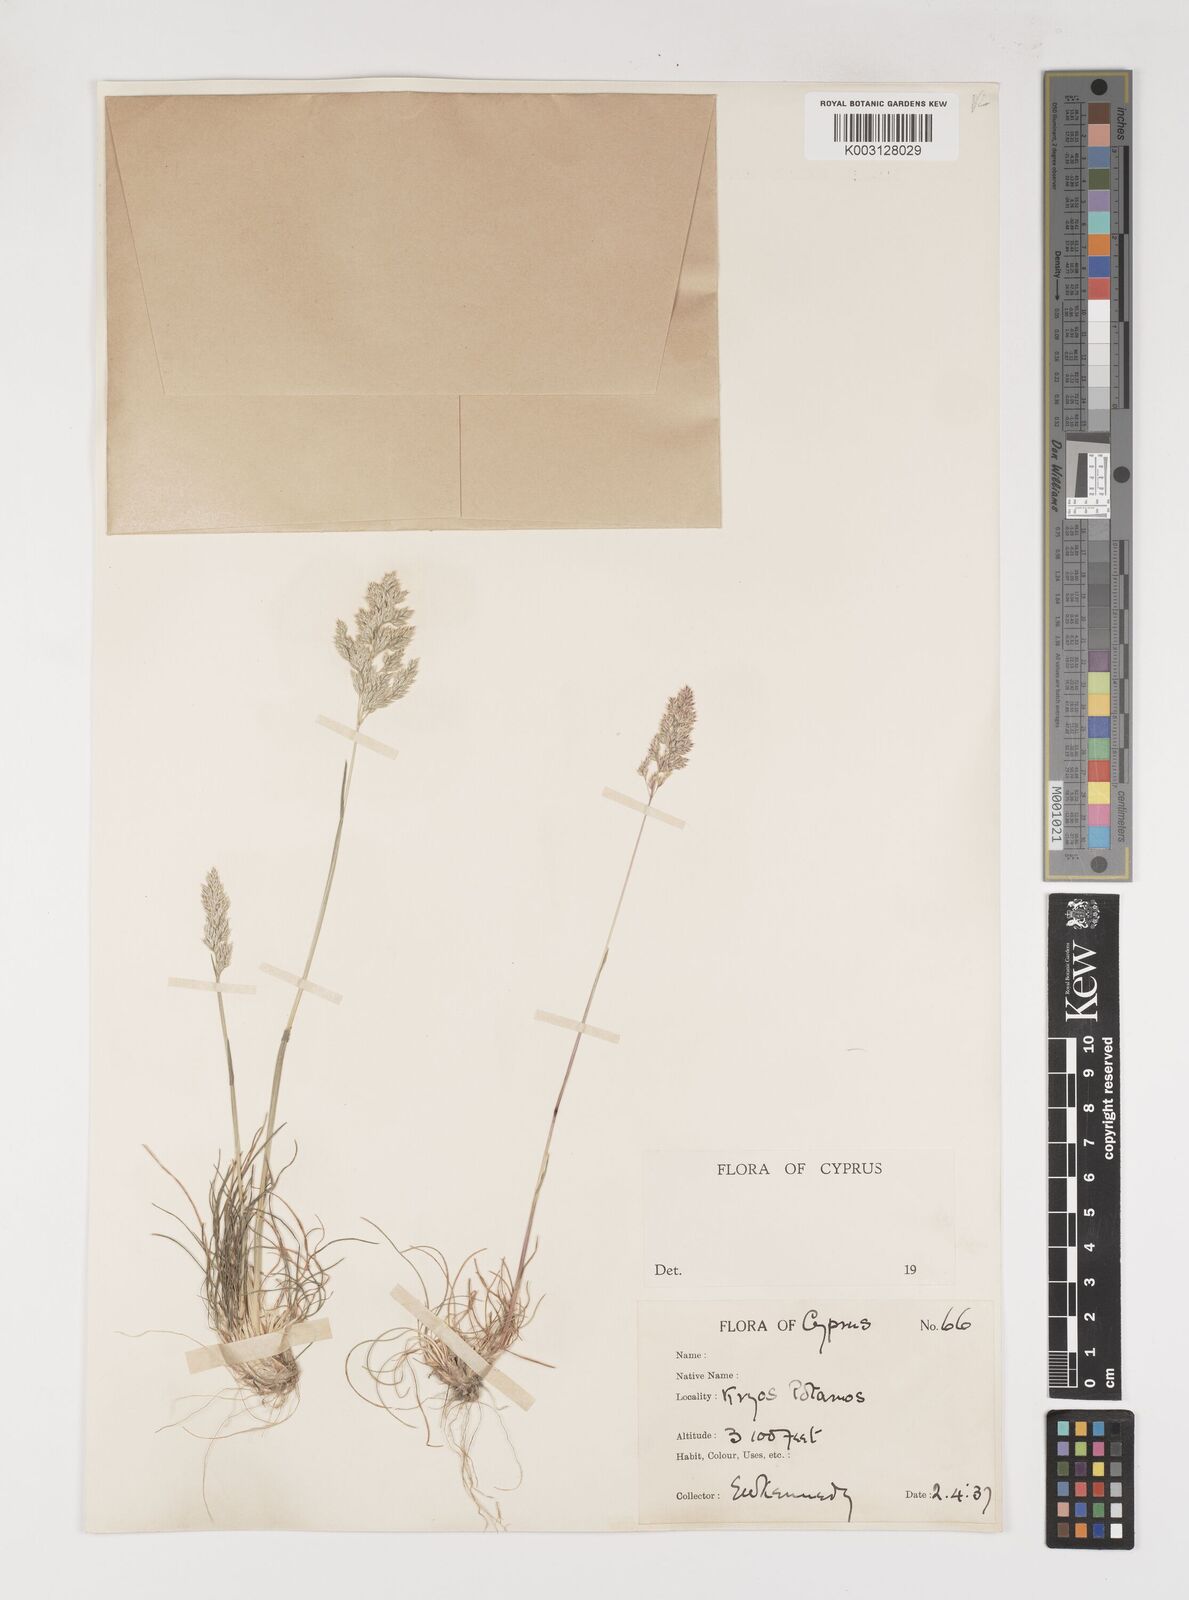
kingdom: Plantae
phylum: Tracheophyta
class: Liliopsida
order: Poales
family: Poaceae
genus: Poa
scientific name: Poa bulbosa
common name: Bulbous bluegrass
